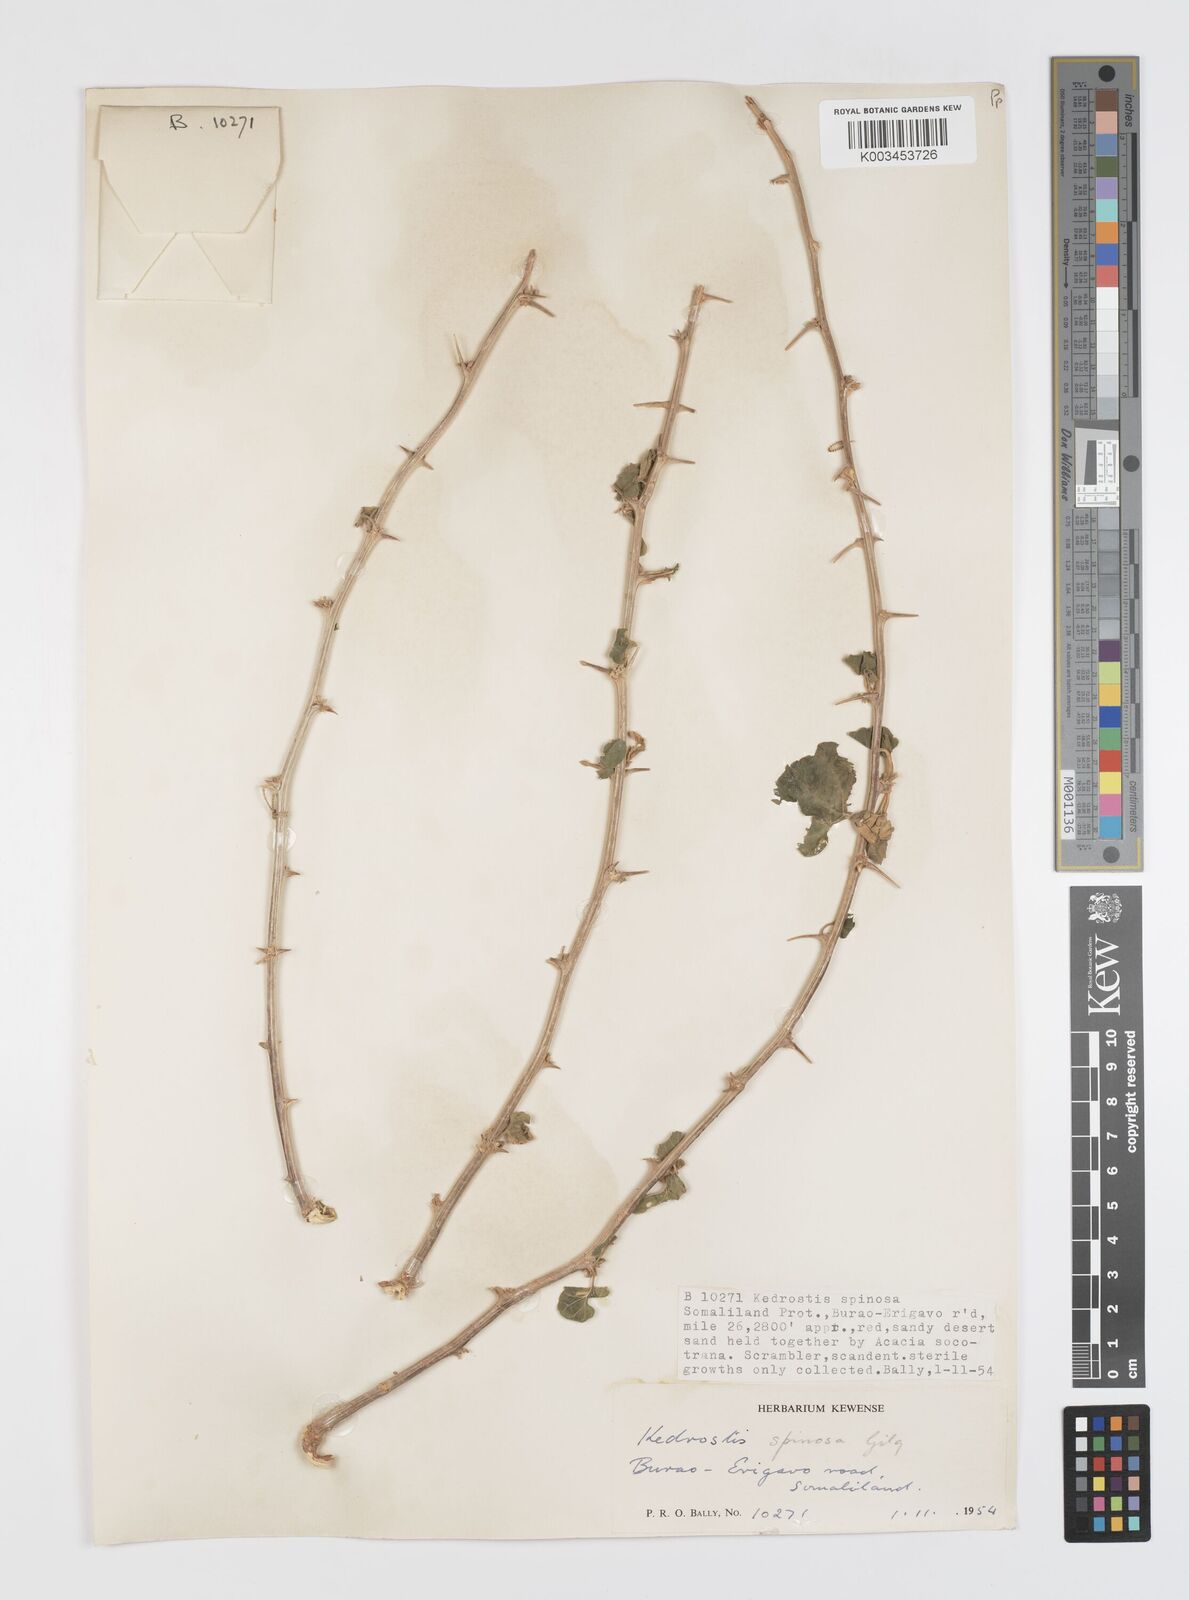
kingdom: Plantae
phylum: Tracheophyta
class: Magnoliopsida
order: Cucurbitales
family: Cucurbitaceae
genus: Momordica
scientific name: Momordica spinosa
